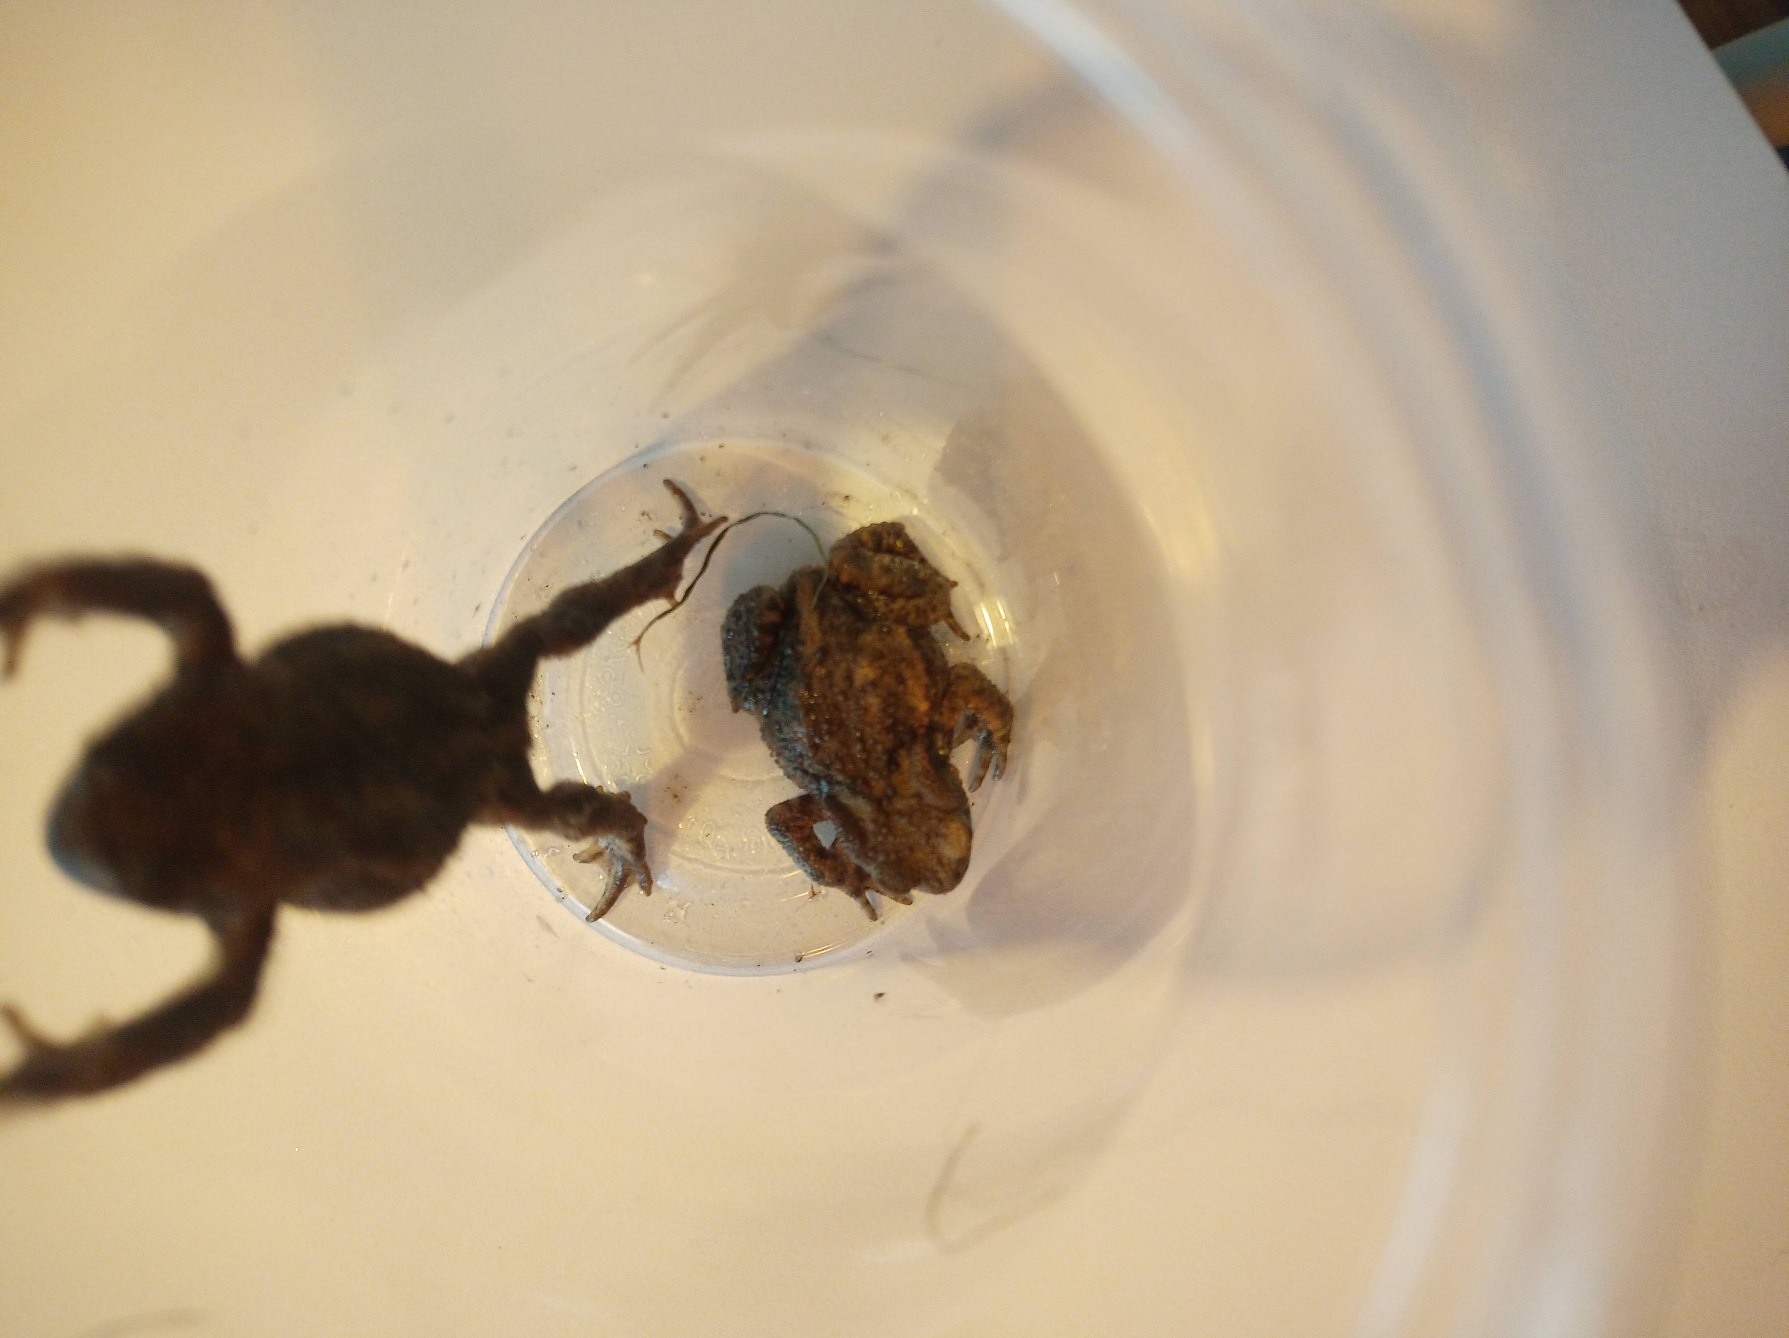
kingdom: Animalia
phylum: Chordata
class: Amphibia
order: Anura
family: Bufonidae
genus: Bufo
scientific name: Bufo bufo
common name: Skrubtudse
